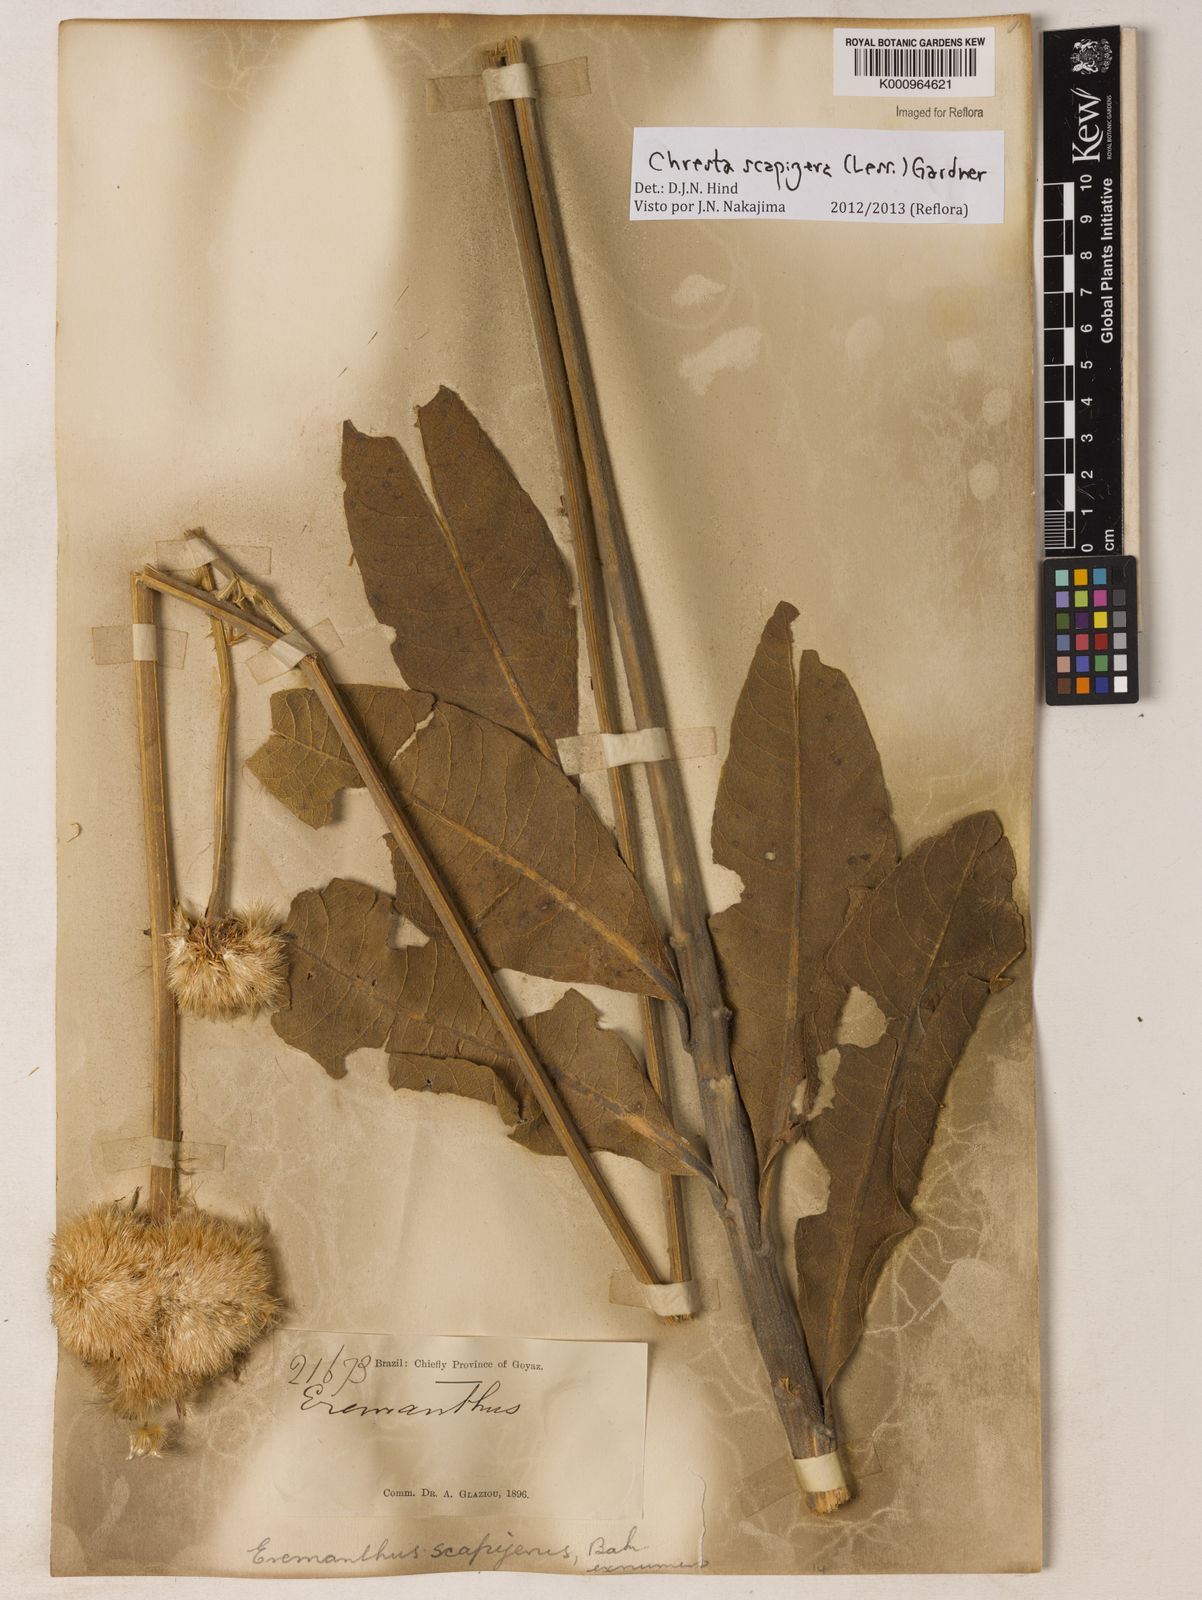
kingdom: Plantae
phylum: Tracheophyta
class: Magnoliopsida
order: Asterales
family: Asteraceae
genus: Chresta
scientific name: Chresta scapigera
